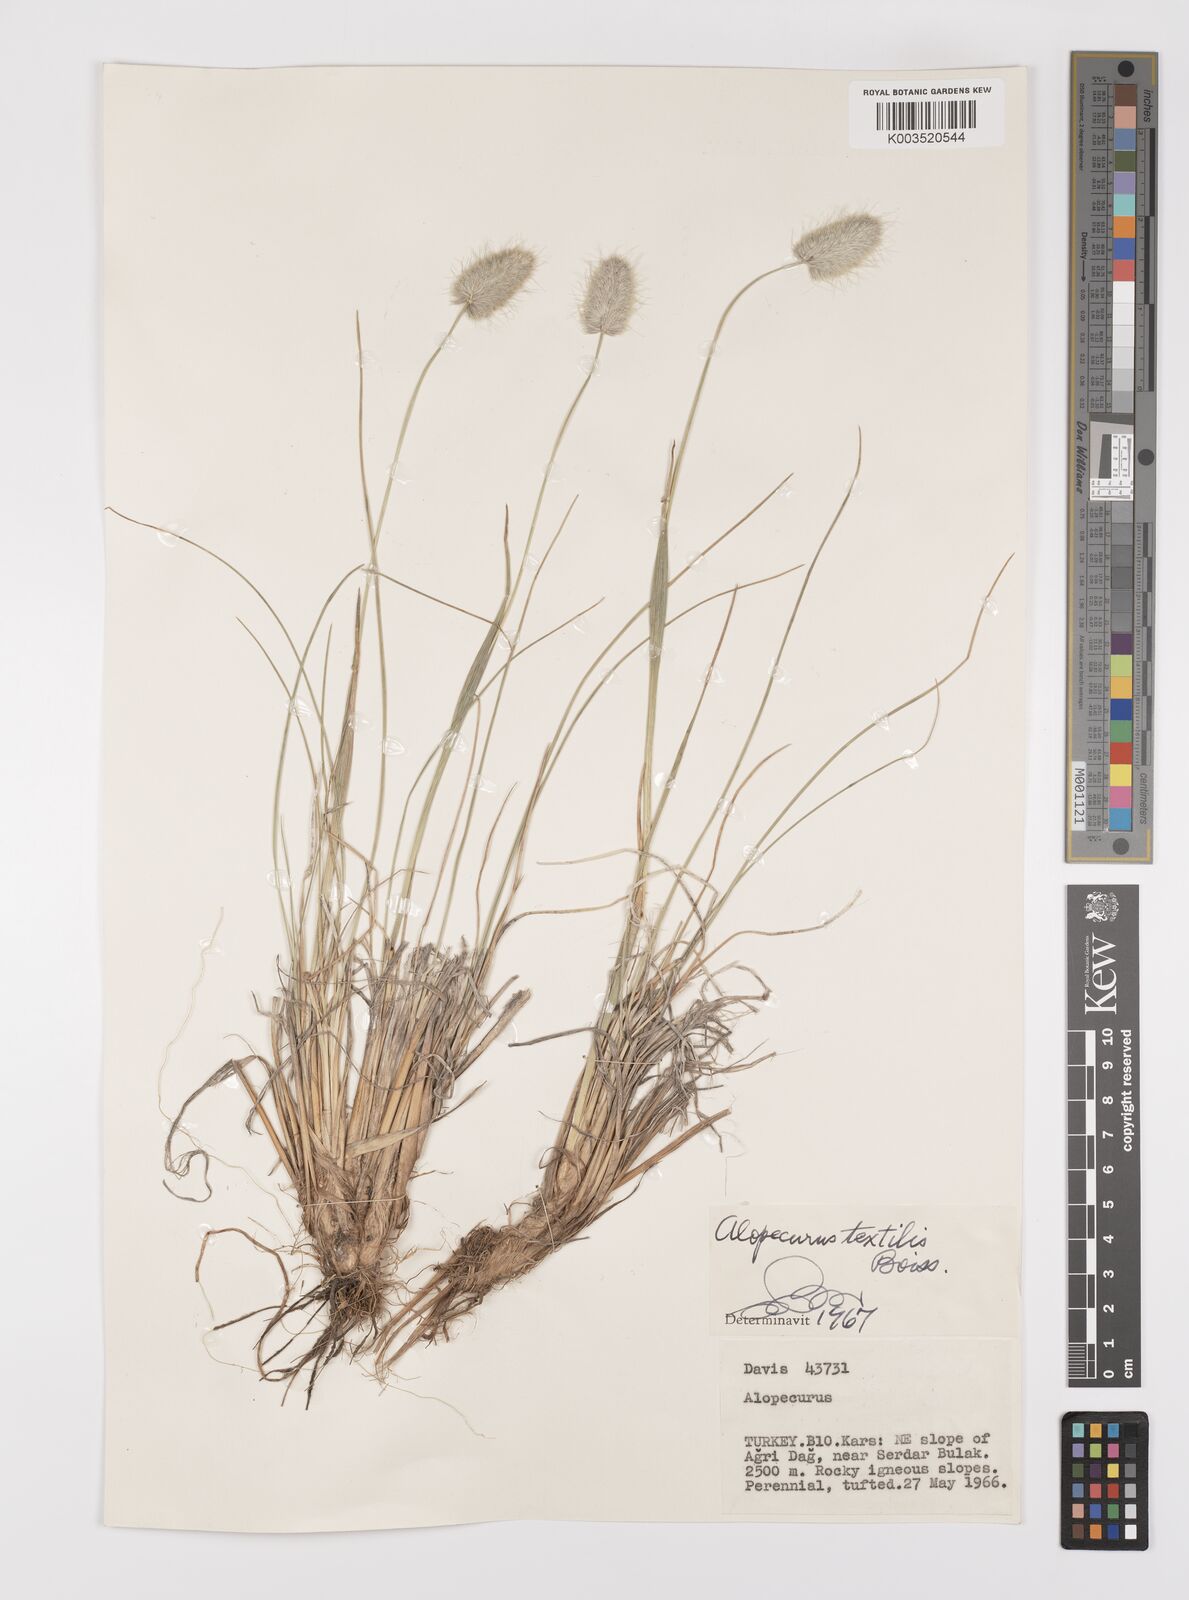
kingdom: Plantae
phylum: Tracheophyta
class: Liliopsida
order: Poales
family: Poaceae
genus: Alopecurus
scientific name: Alopecurus textilis
